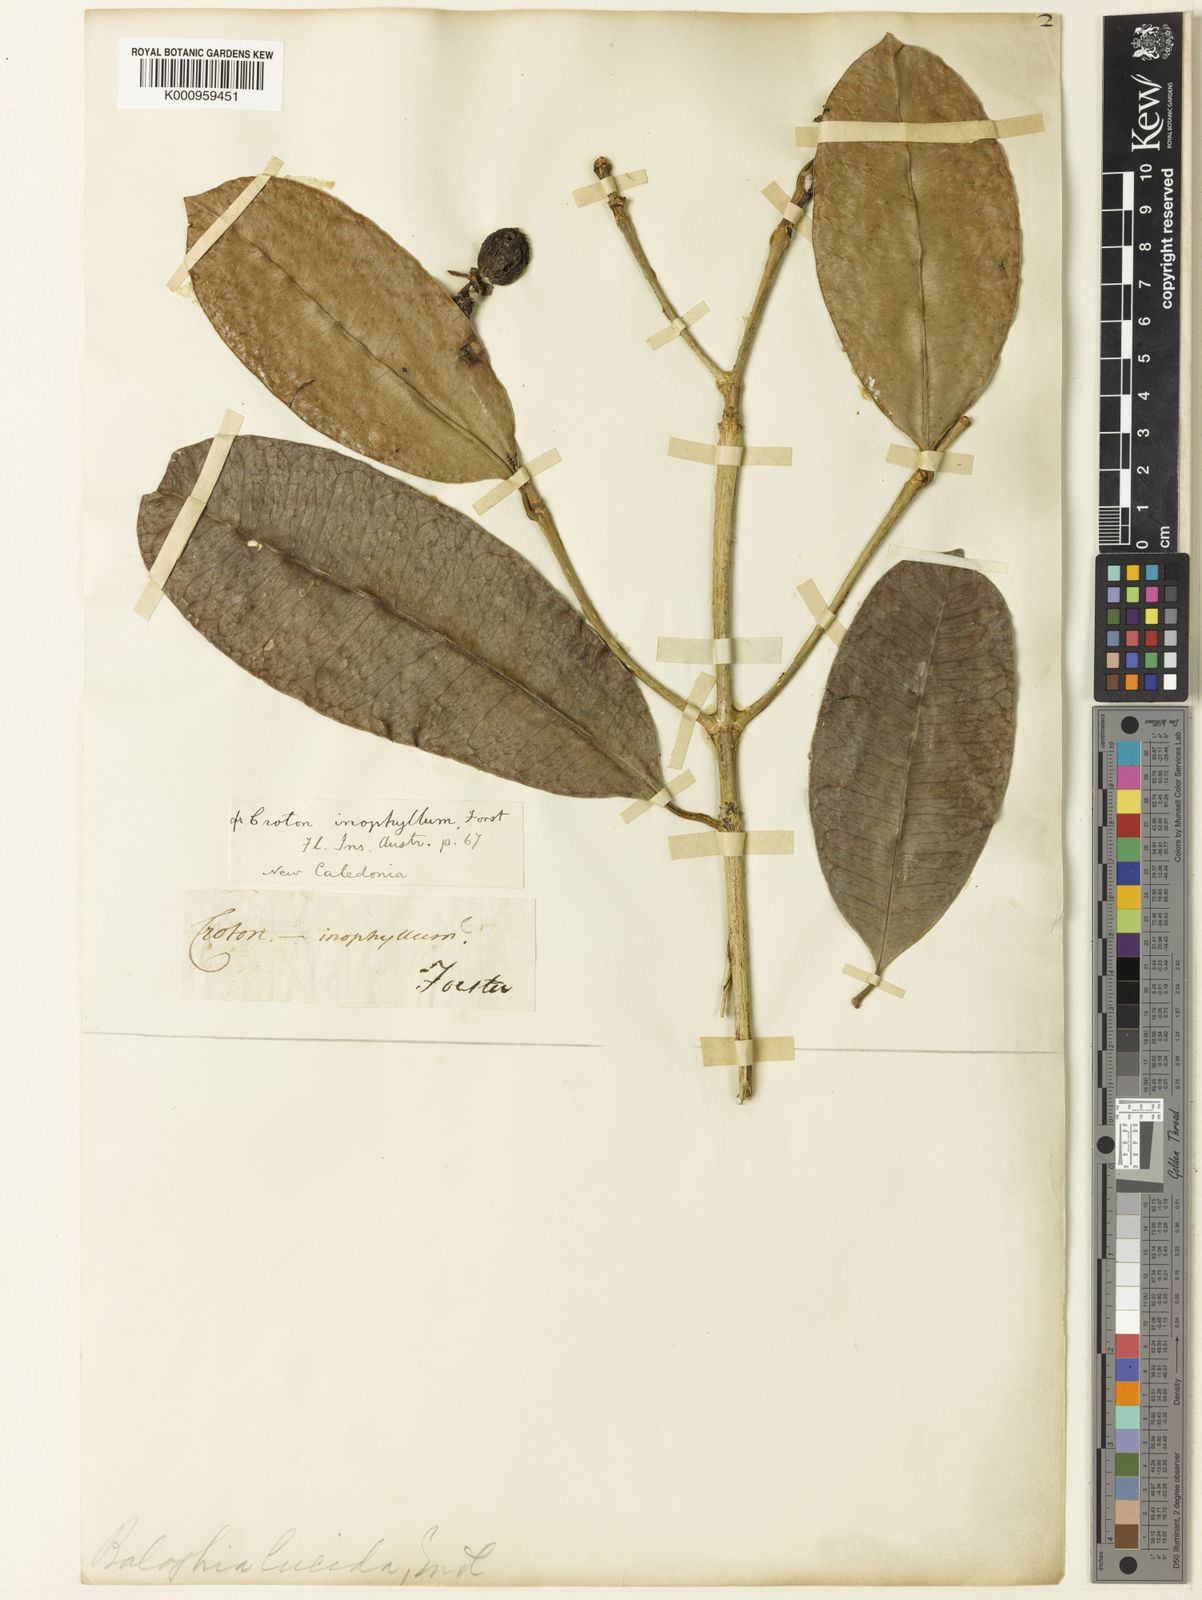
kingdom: Plantae
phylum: Tracheophyta
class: Magnoliopsida
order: Malpighiales
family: Euphorbiaceae
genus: Baloghia
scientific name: Baloghia inophylla
